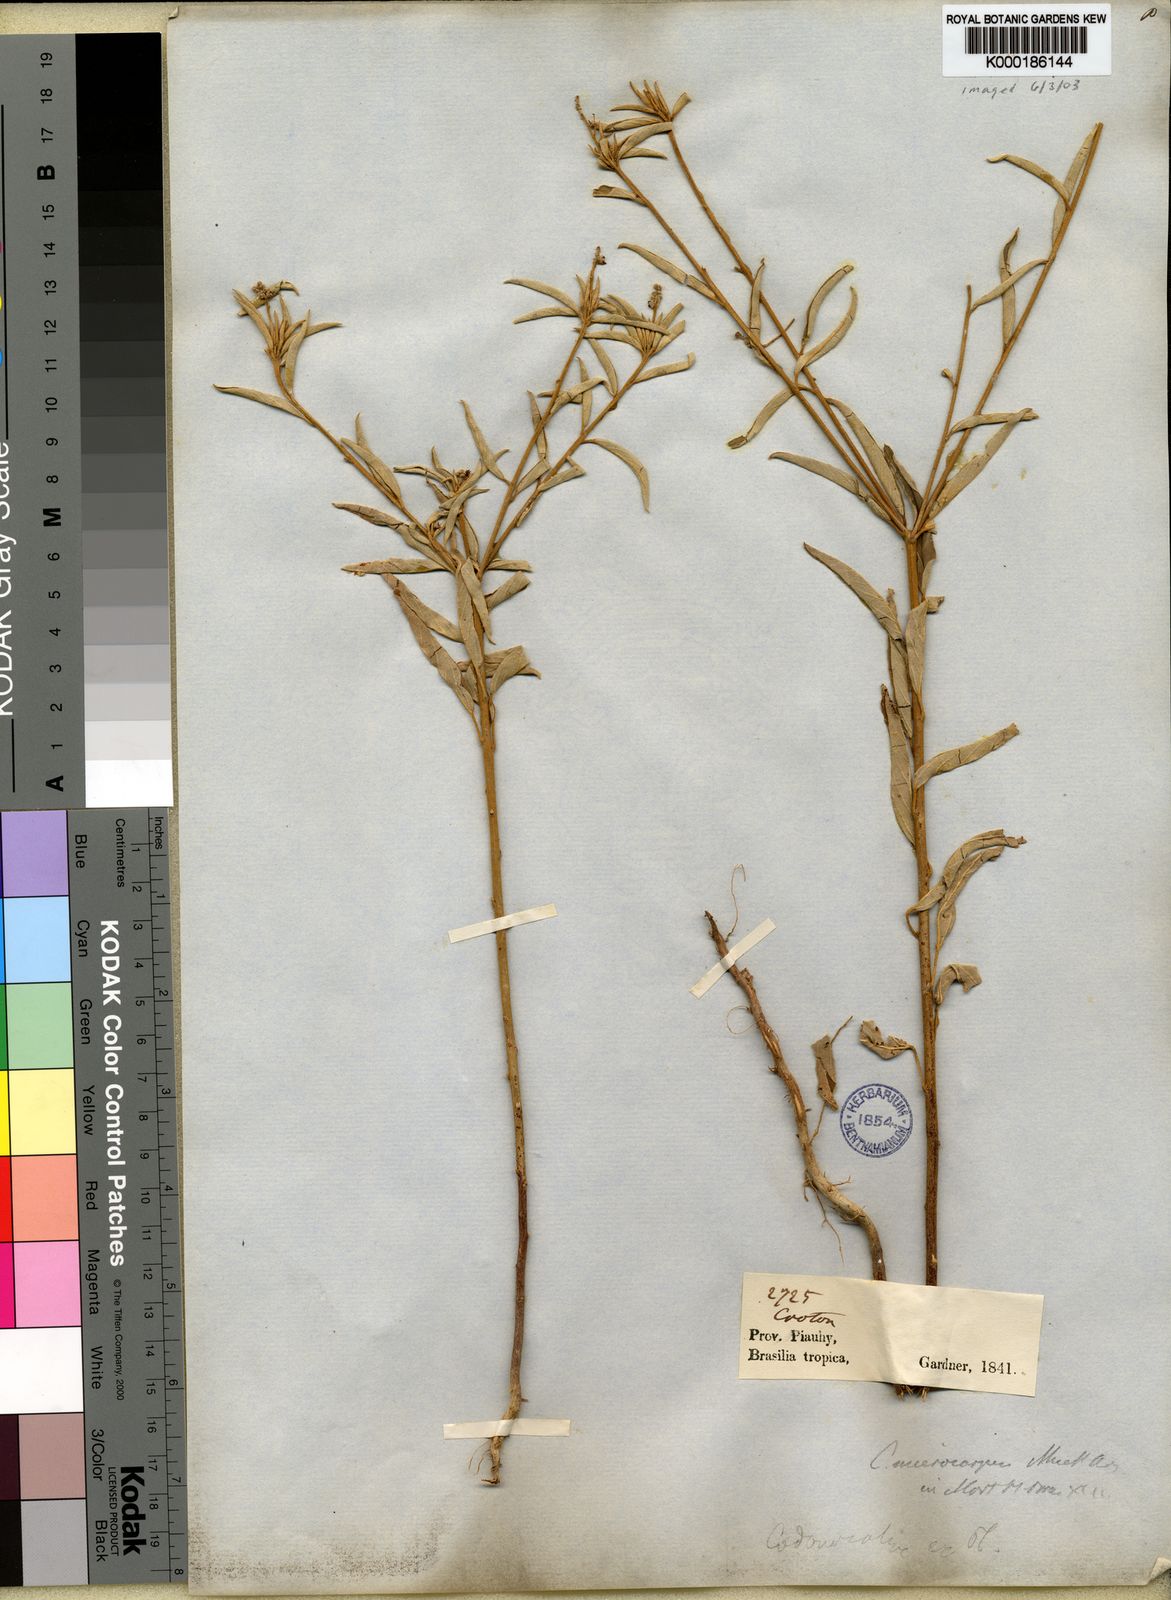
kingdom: Plantae
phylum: Tracheophyta
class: Magnoliopsida
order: Malpighiales
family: Euphorbiaceae
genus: Croton
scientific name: Croton
